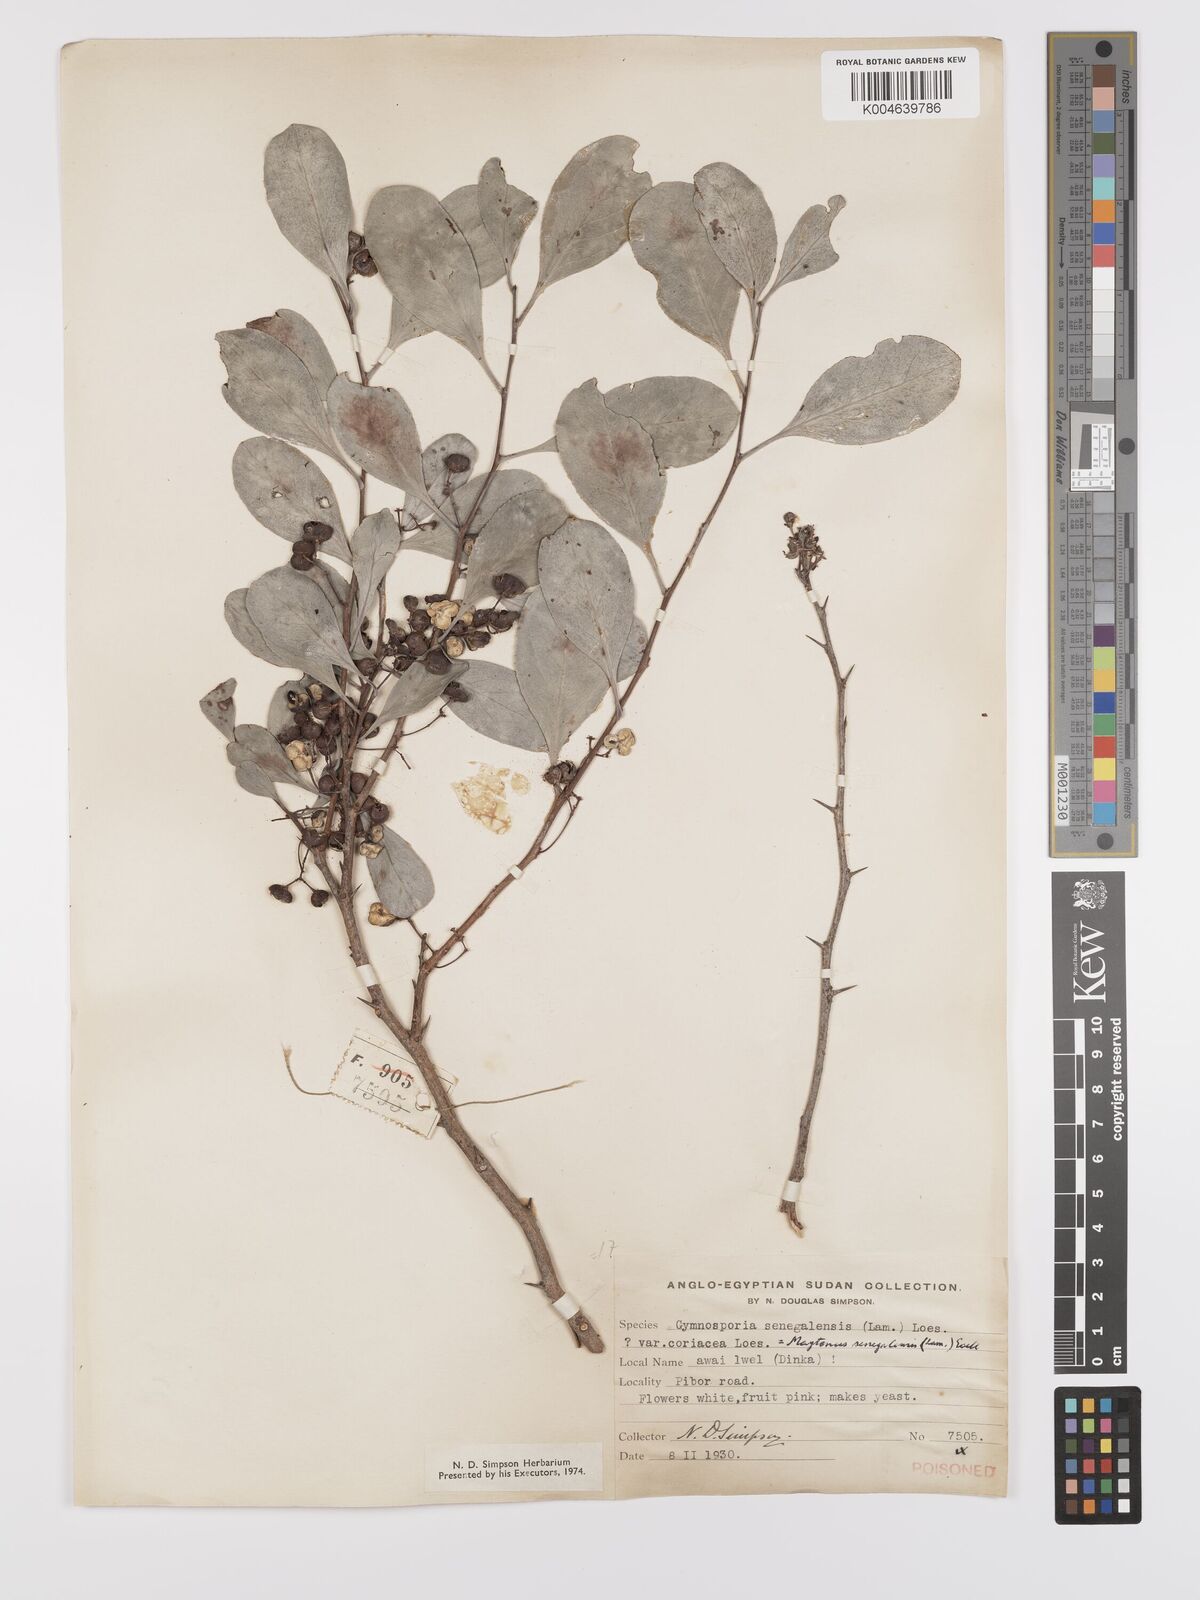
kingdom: Plantae
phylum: Tracheophyta
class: Magnoliopsida
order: Celastrales
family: Celastraceae
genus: Gymnosporia
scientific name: Gymnosporia senegalensis
